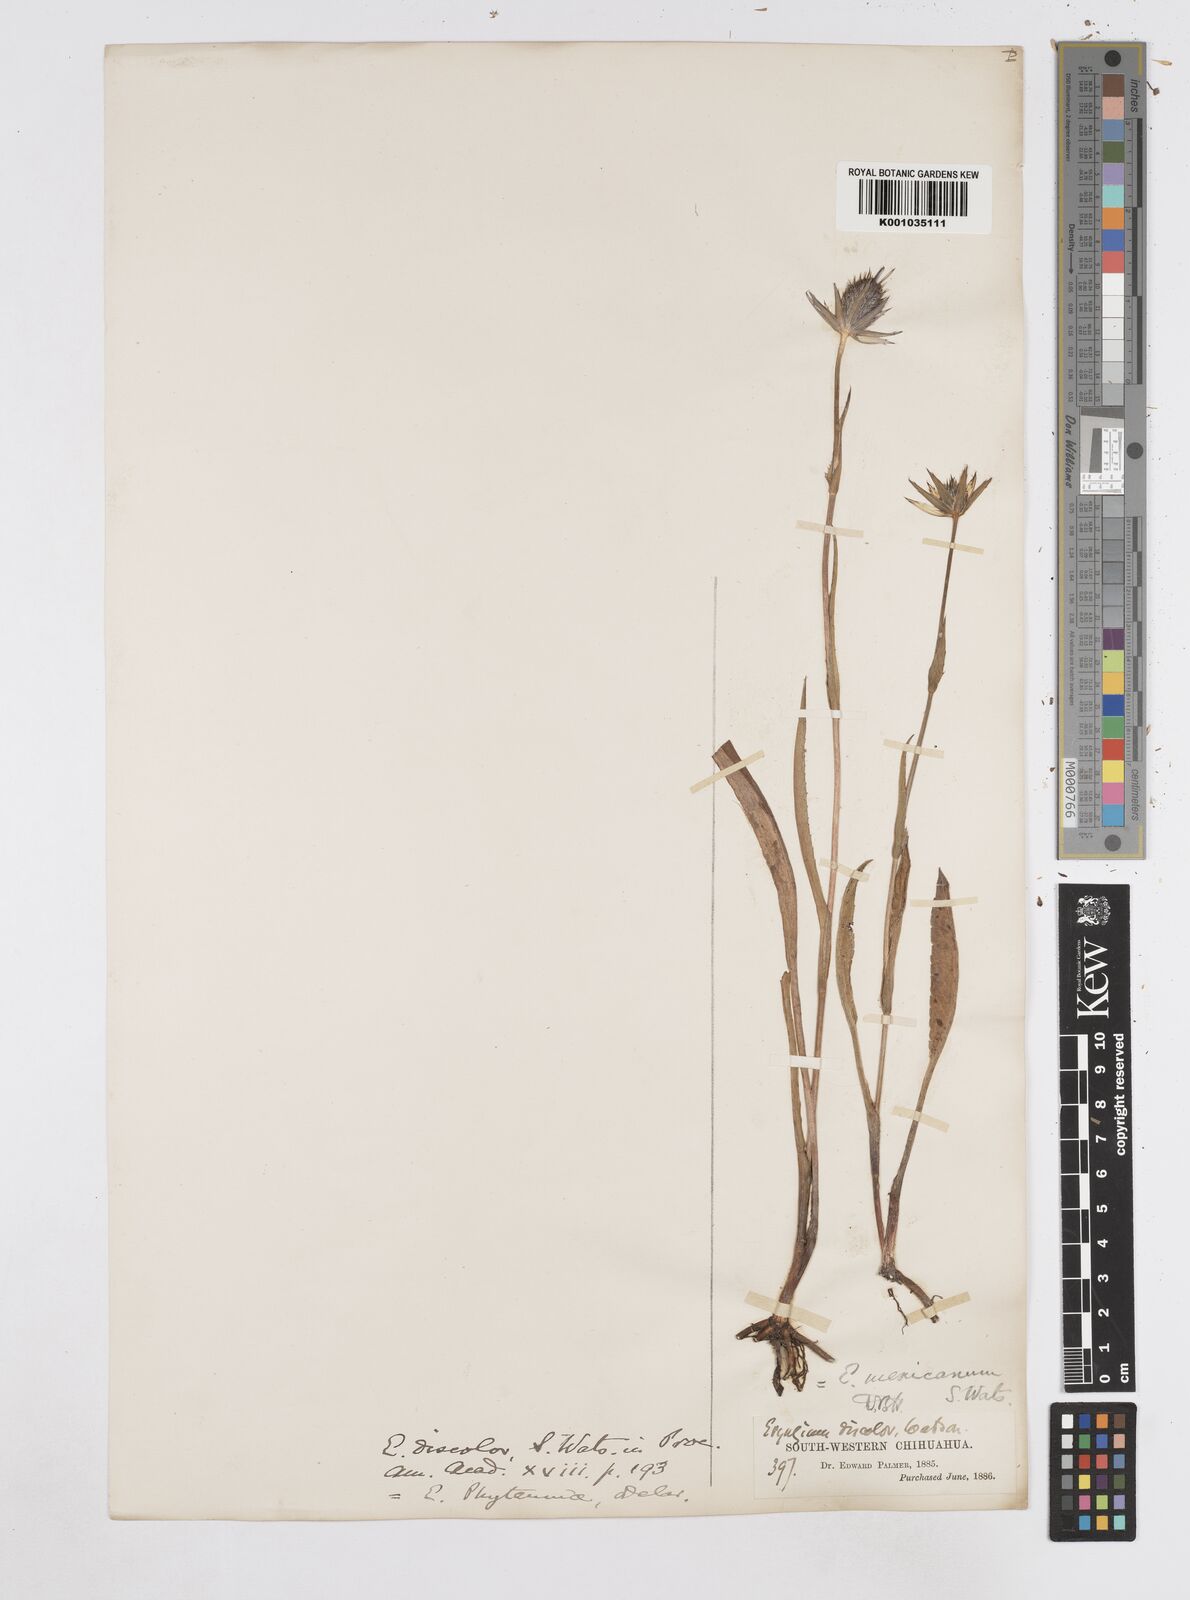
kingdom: Plantae
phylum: Tracheophyta
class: Magnoliopsida
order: Apiales
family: Apiaceae
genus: Eryngium
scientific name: Eryngium phyteumae
